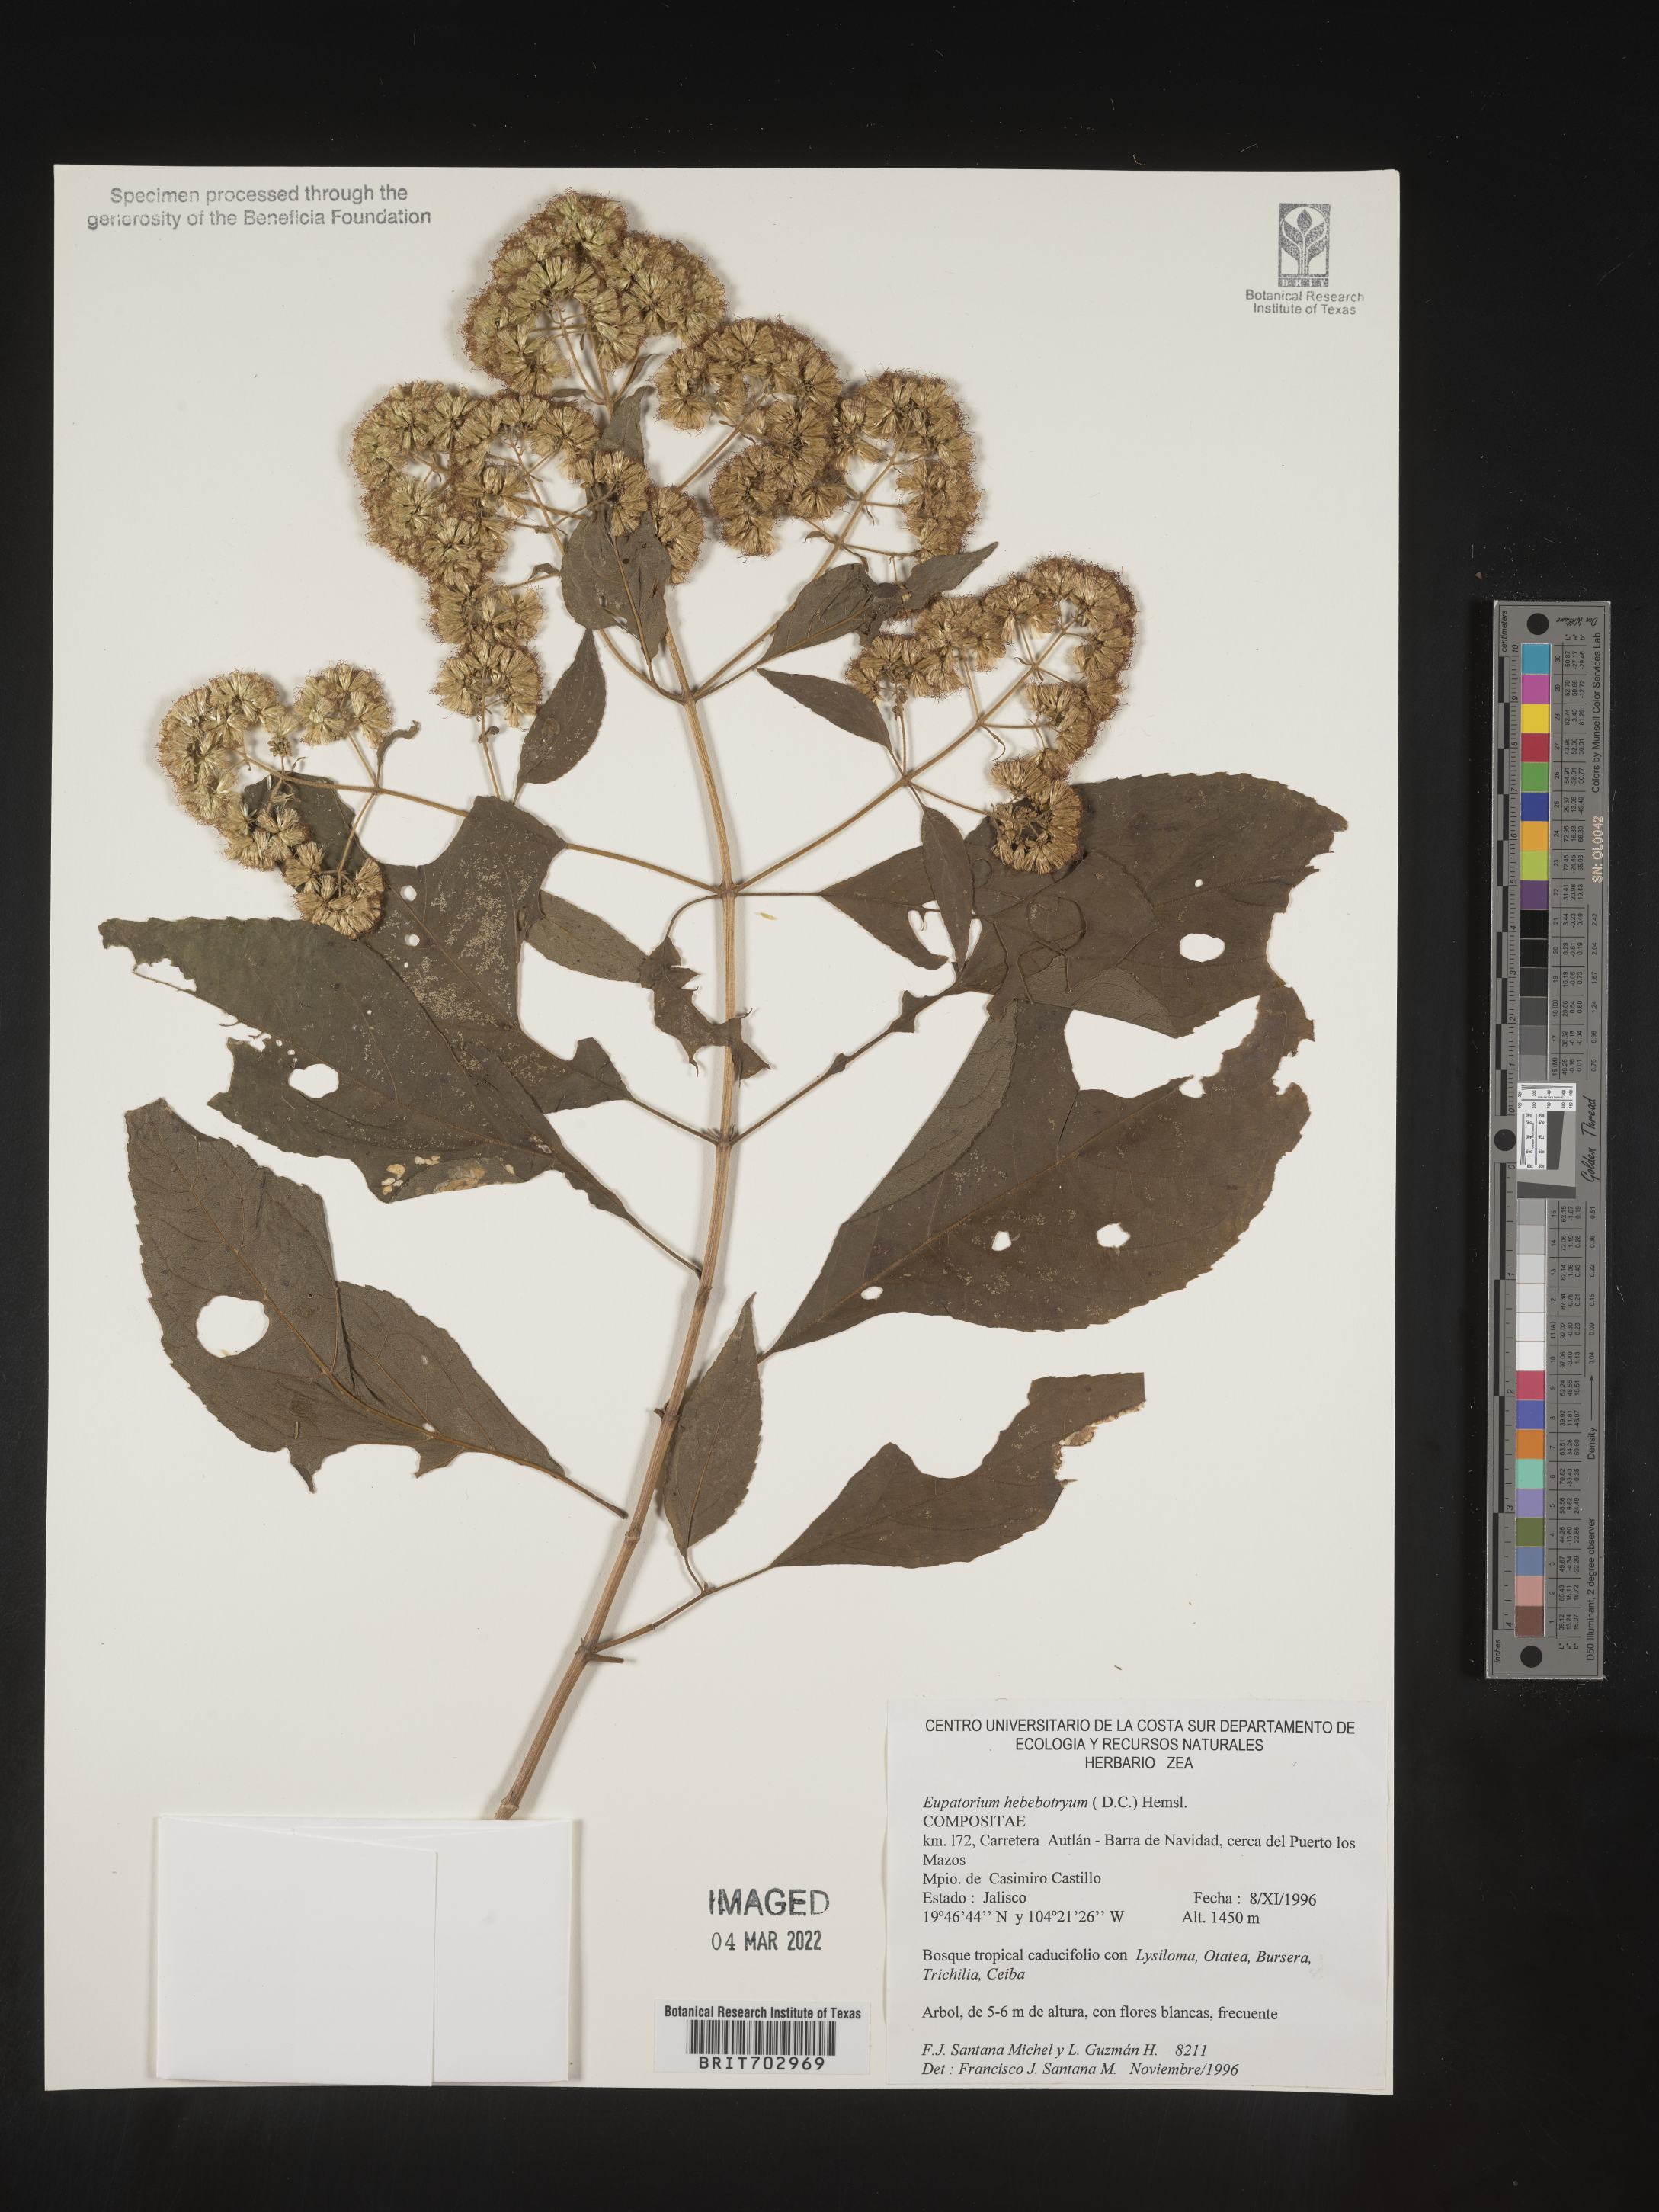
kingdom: Plantae
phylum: Tracheophyta
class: Magnoliopsida
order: Asterales
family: Asteraceae
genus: Eupatorium
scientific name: Eupatorium
